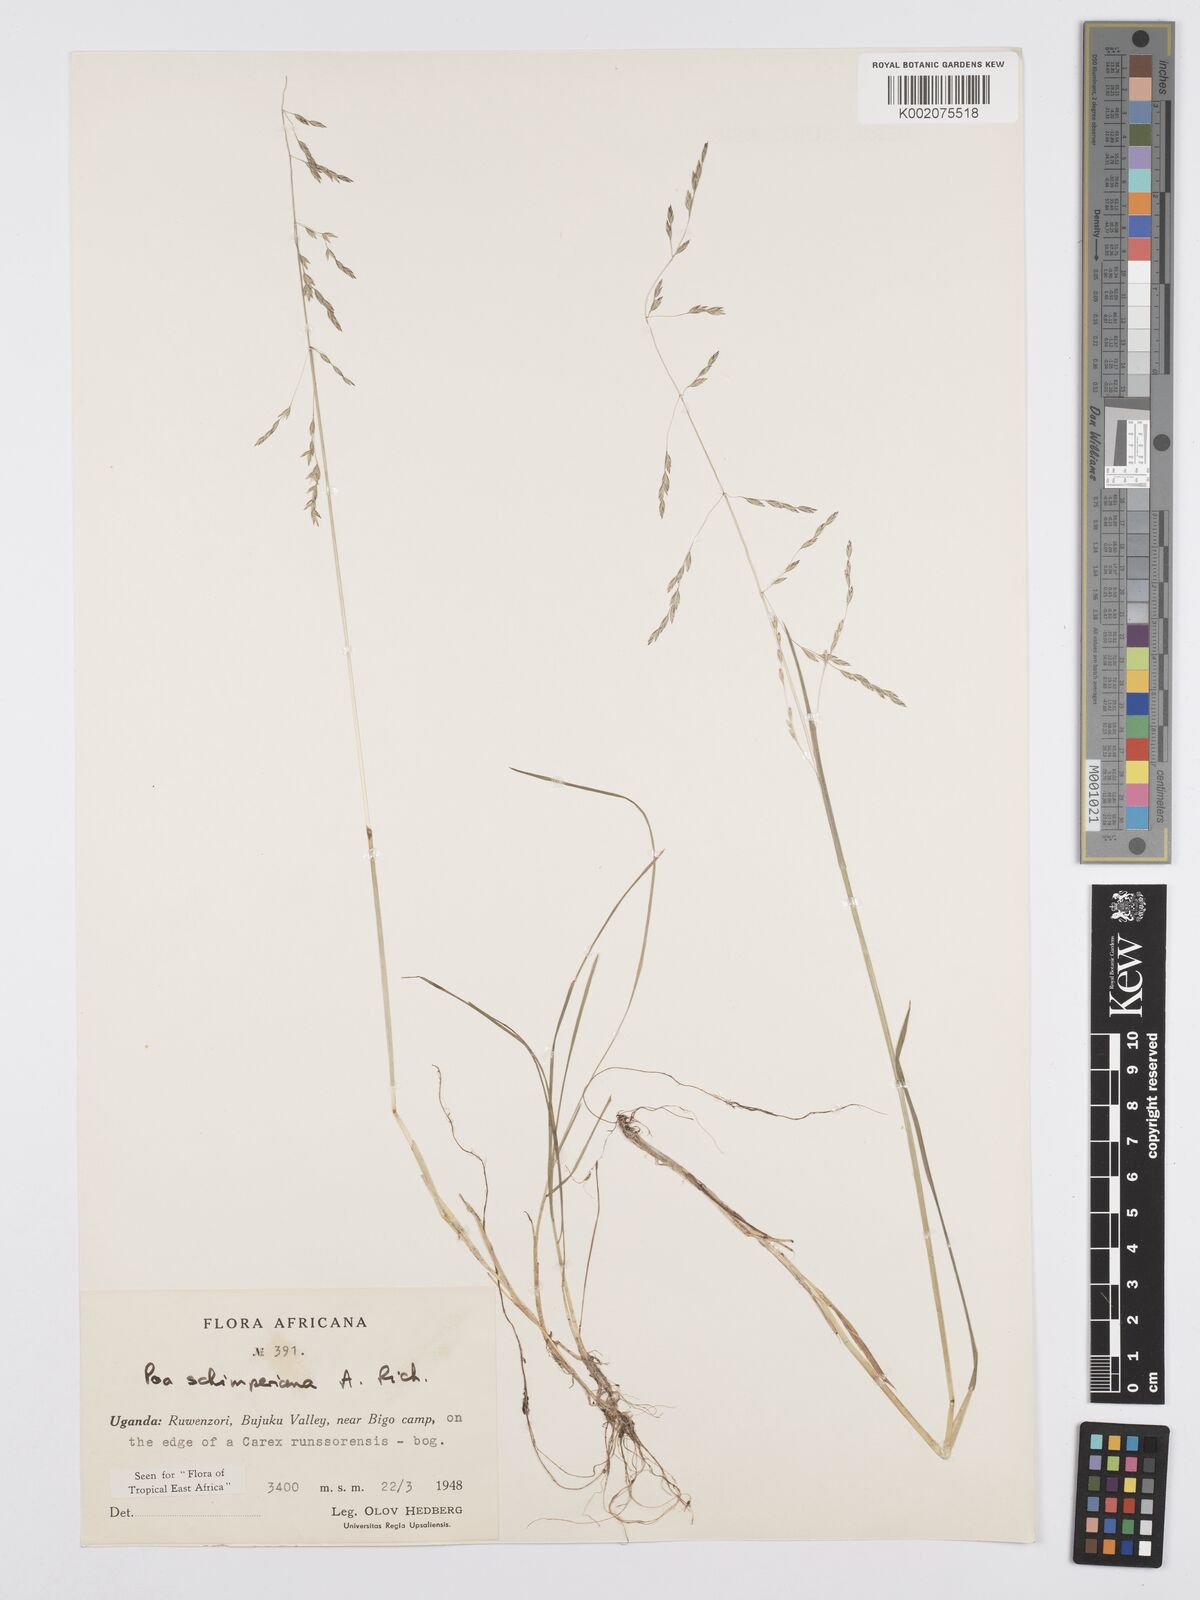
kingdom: Plantae
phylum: Tracheophyta
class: Liliopsida
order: Poales
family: Poaceae
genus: Poa
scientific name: Poa schimperiana
